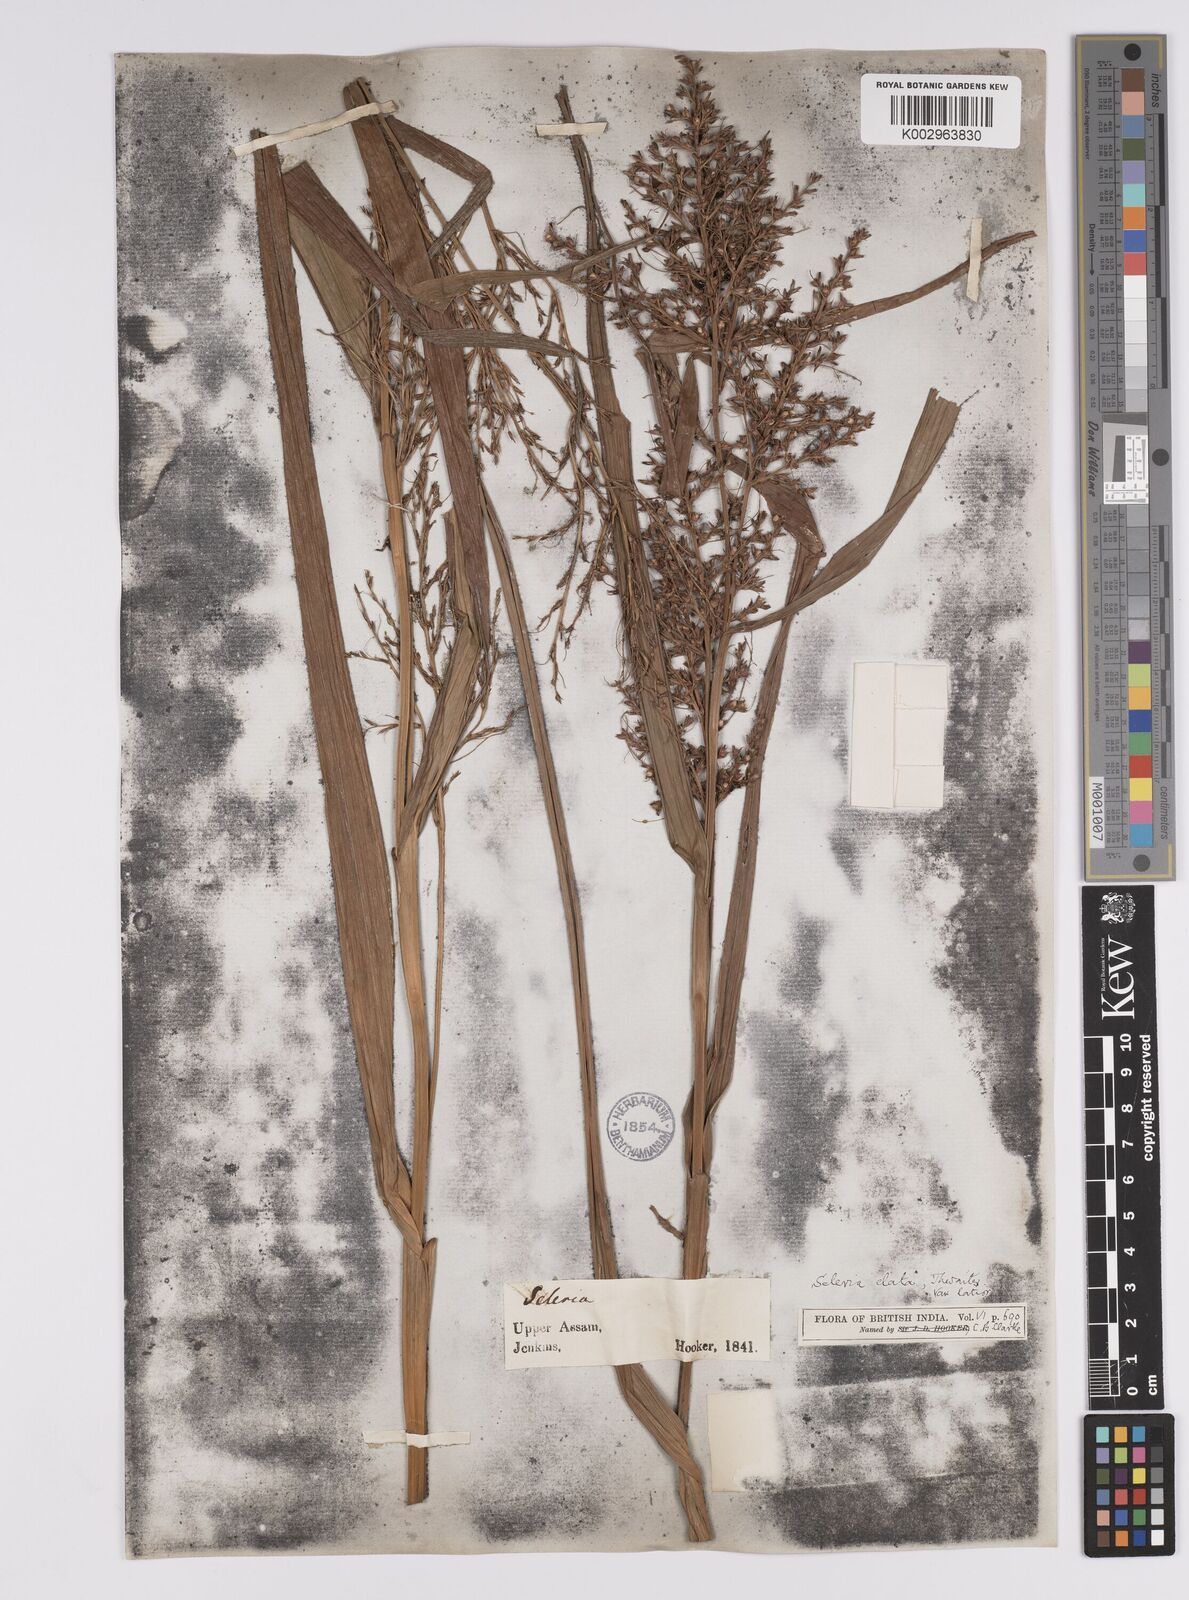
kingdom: Plantae
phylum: Tracheophyta
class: Liliopsida
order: Poales
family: Cyperaceae
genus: Scleria
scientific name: Scleria terrestris
